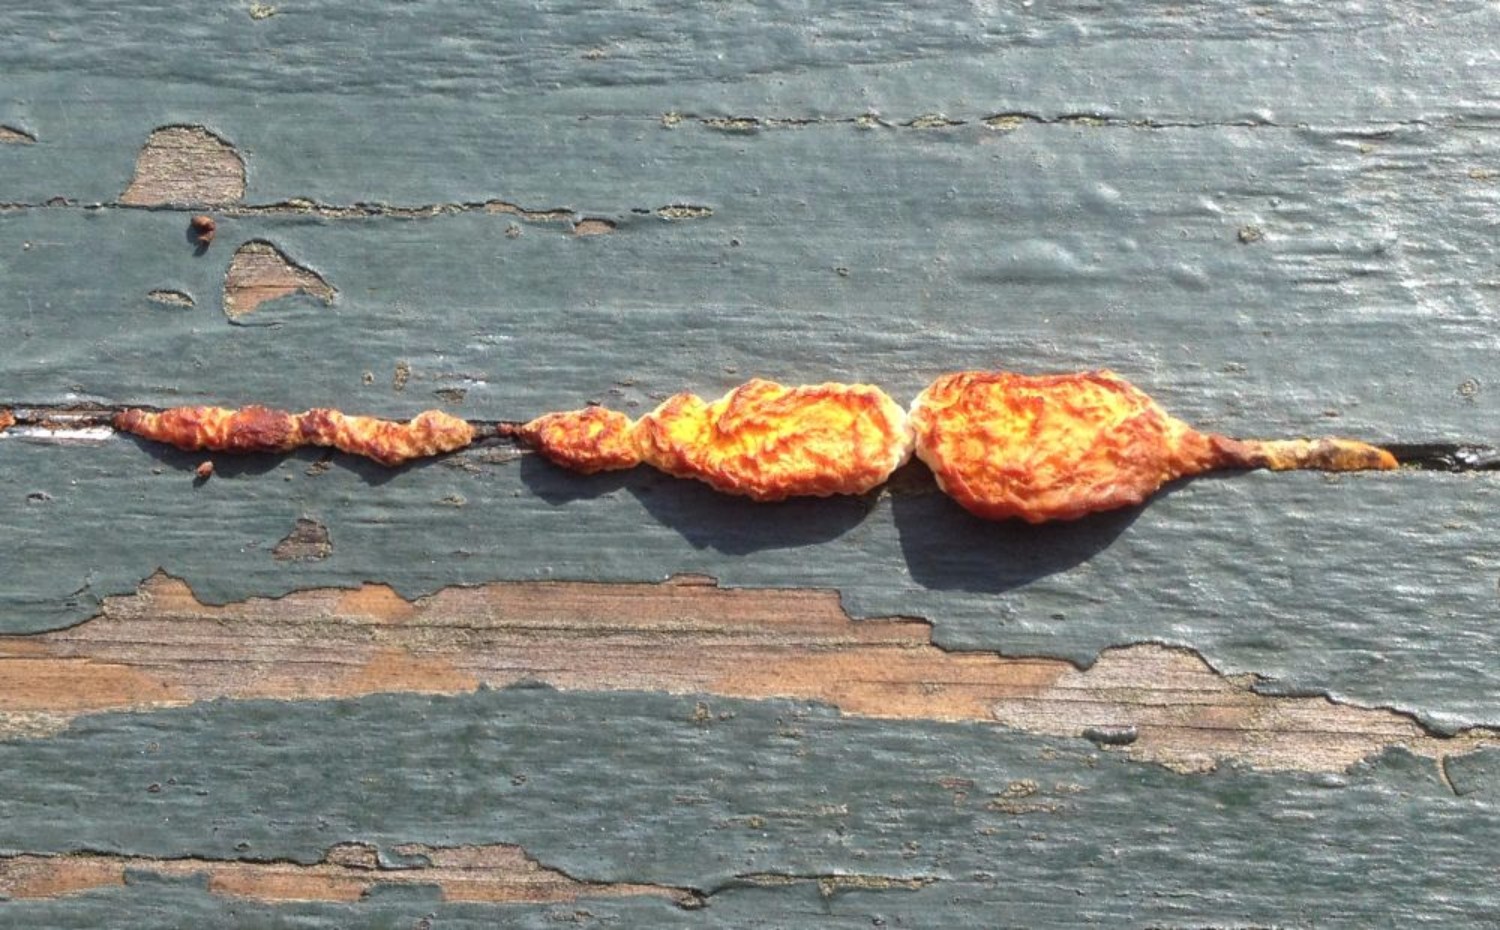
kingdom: Fungi
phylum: Basidiomycota
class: Agaricomycetes
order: Hymenochaetales
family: Hymenochaetaceae
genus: Fuscoporia
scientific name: Fuscoporia ferrea
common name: skorpe-ildporesvamp
